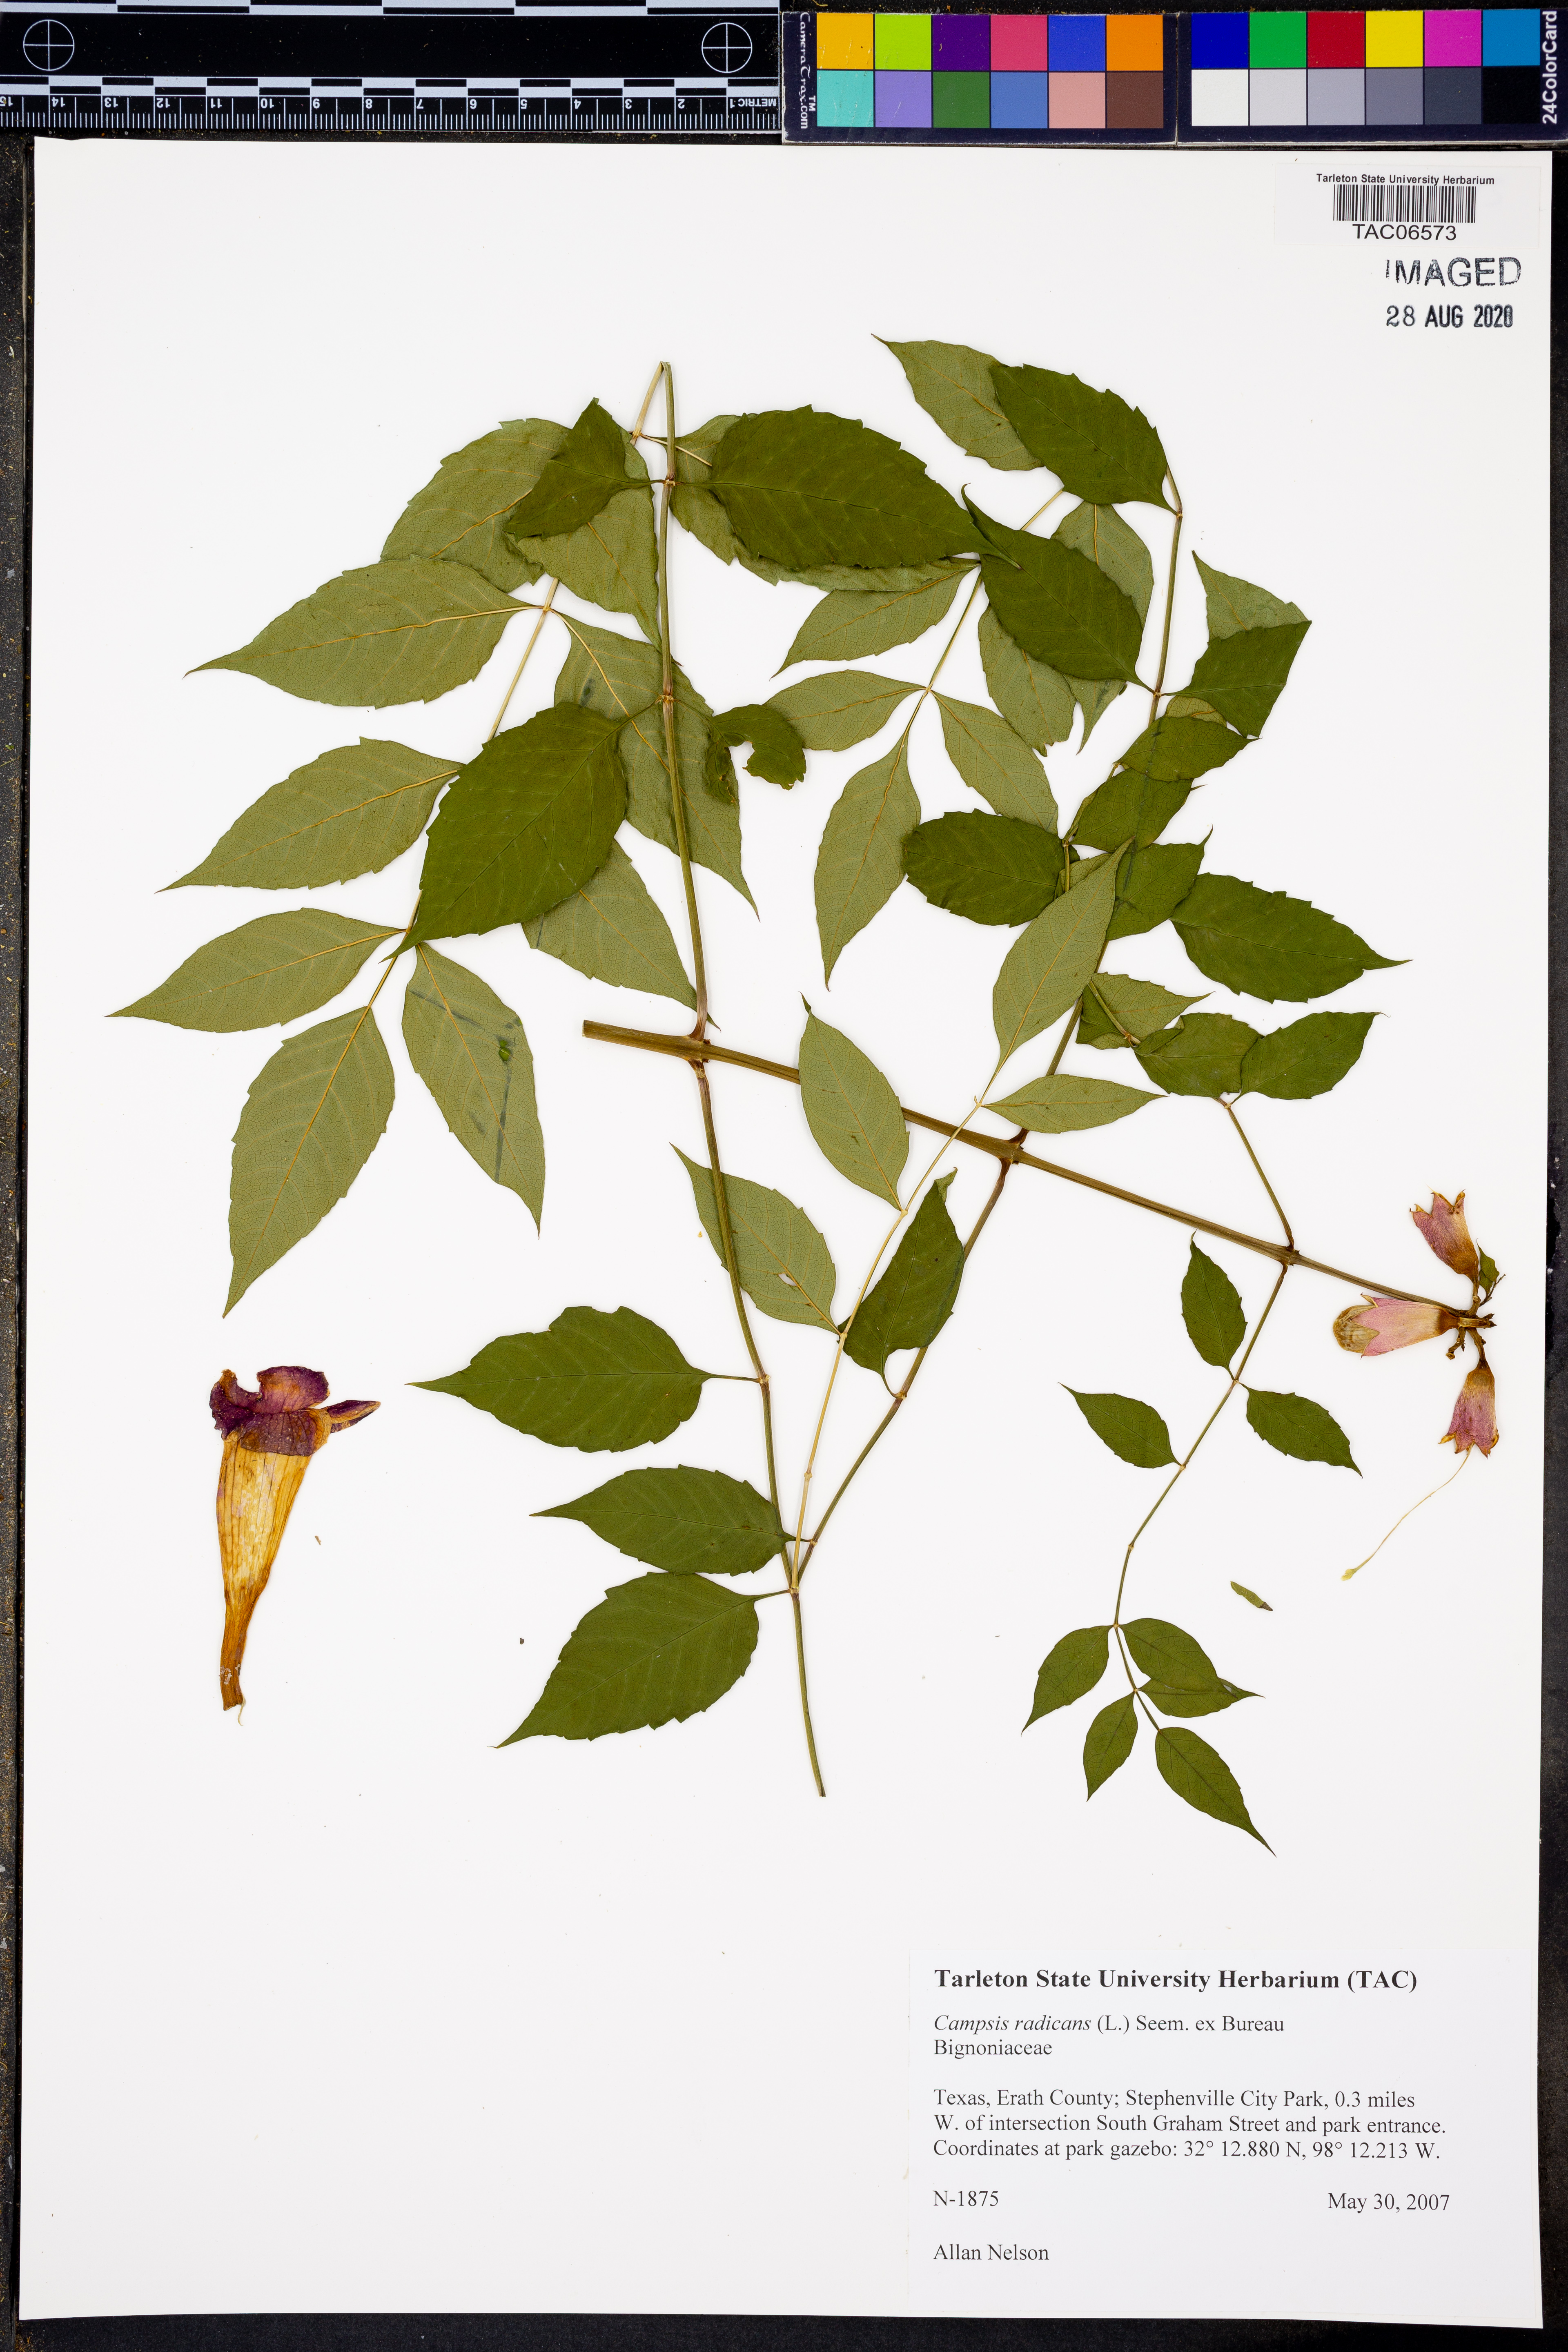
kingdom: Plantae
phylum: Tracheophyta
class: Magnoliopsida
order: Lamiales
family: Bignoniaceae
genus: Campsis
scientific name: Campsis radicans
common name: Trumpet-creeper
